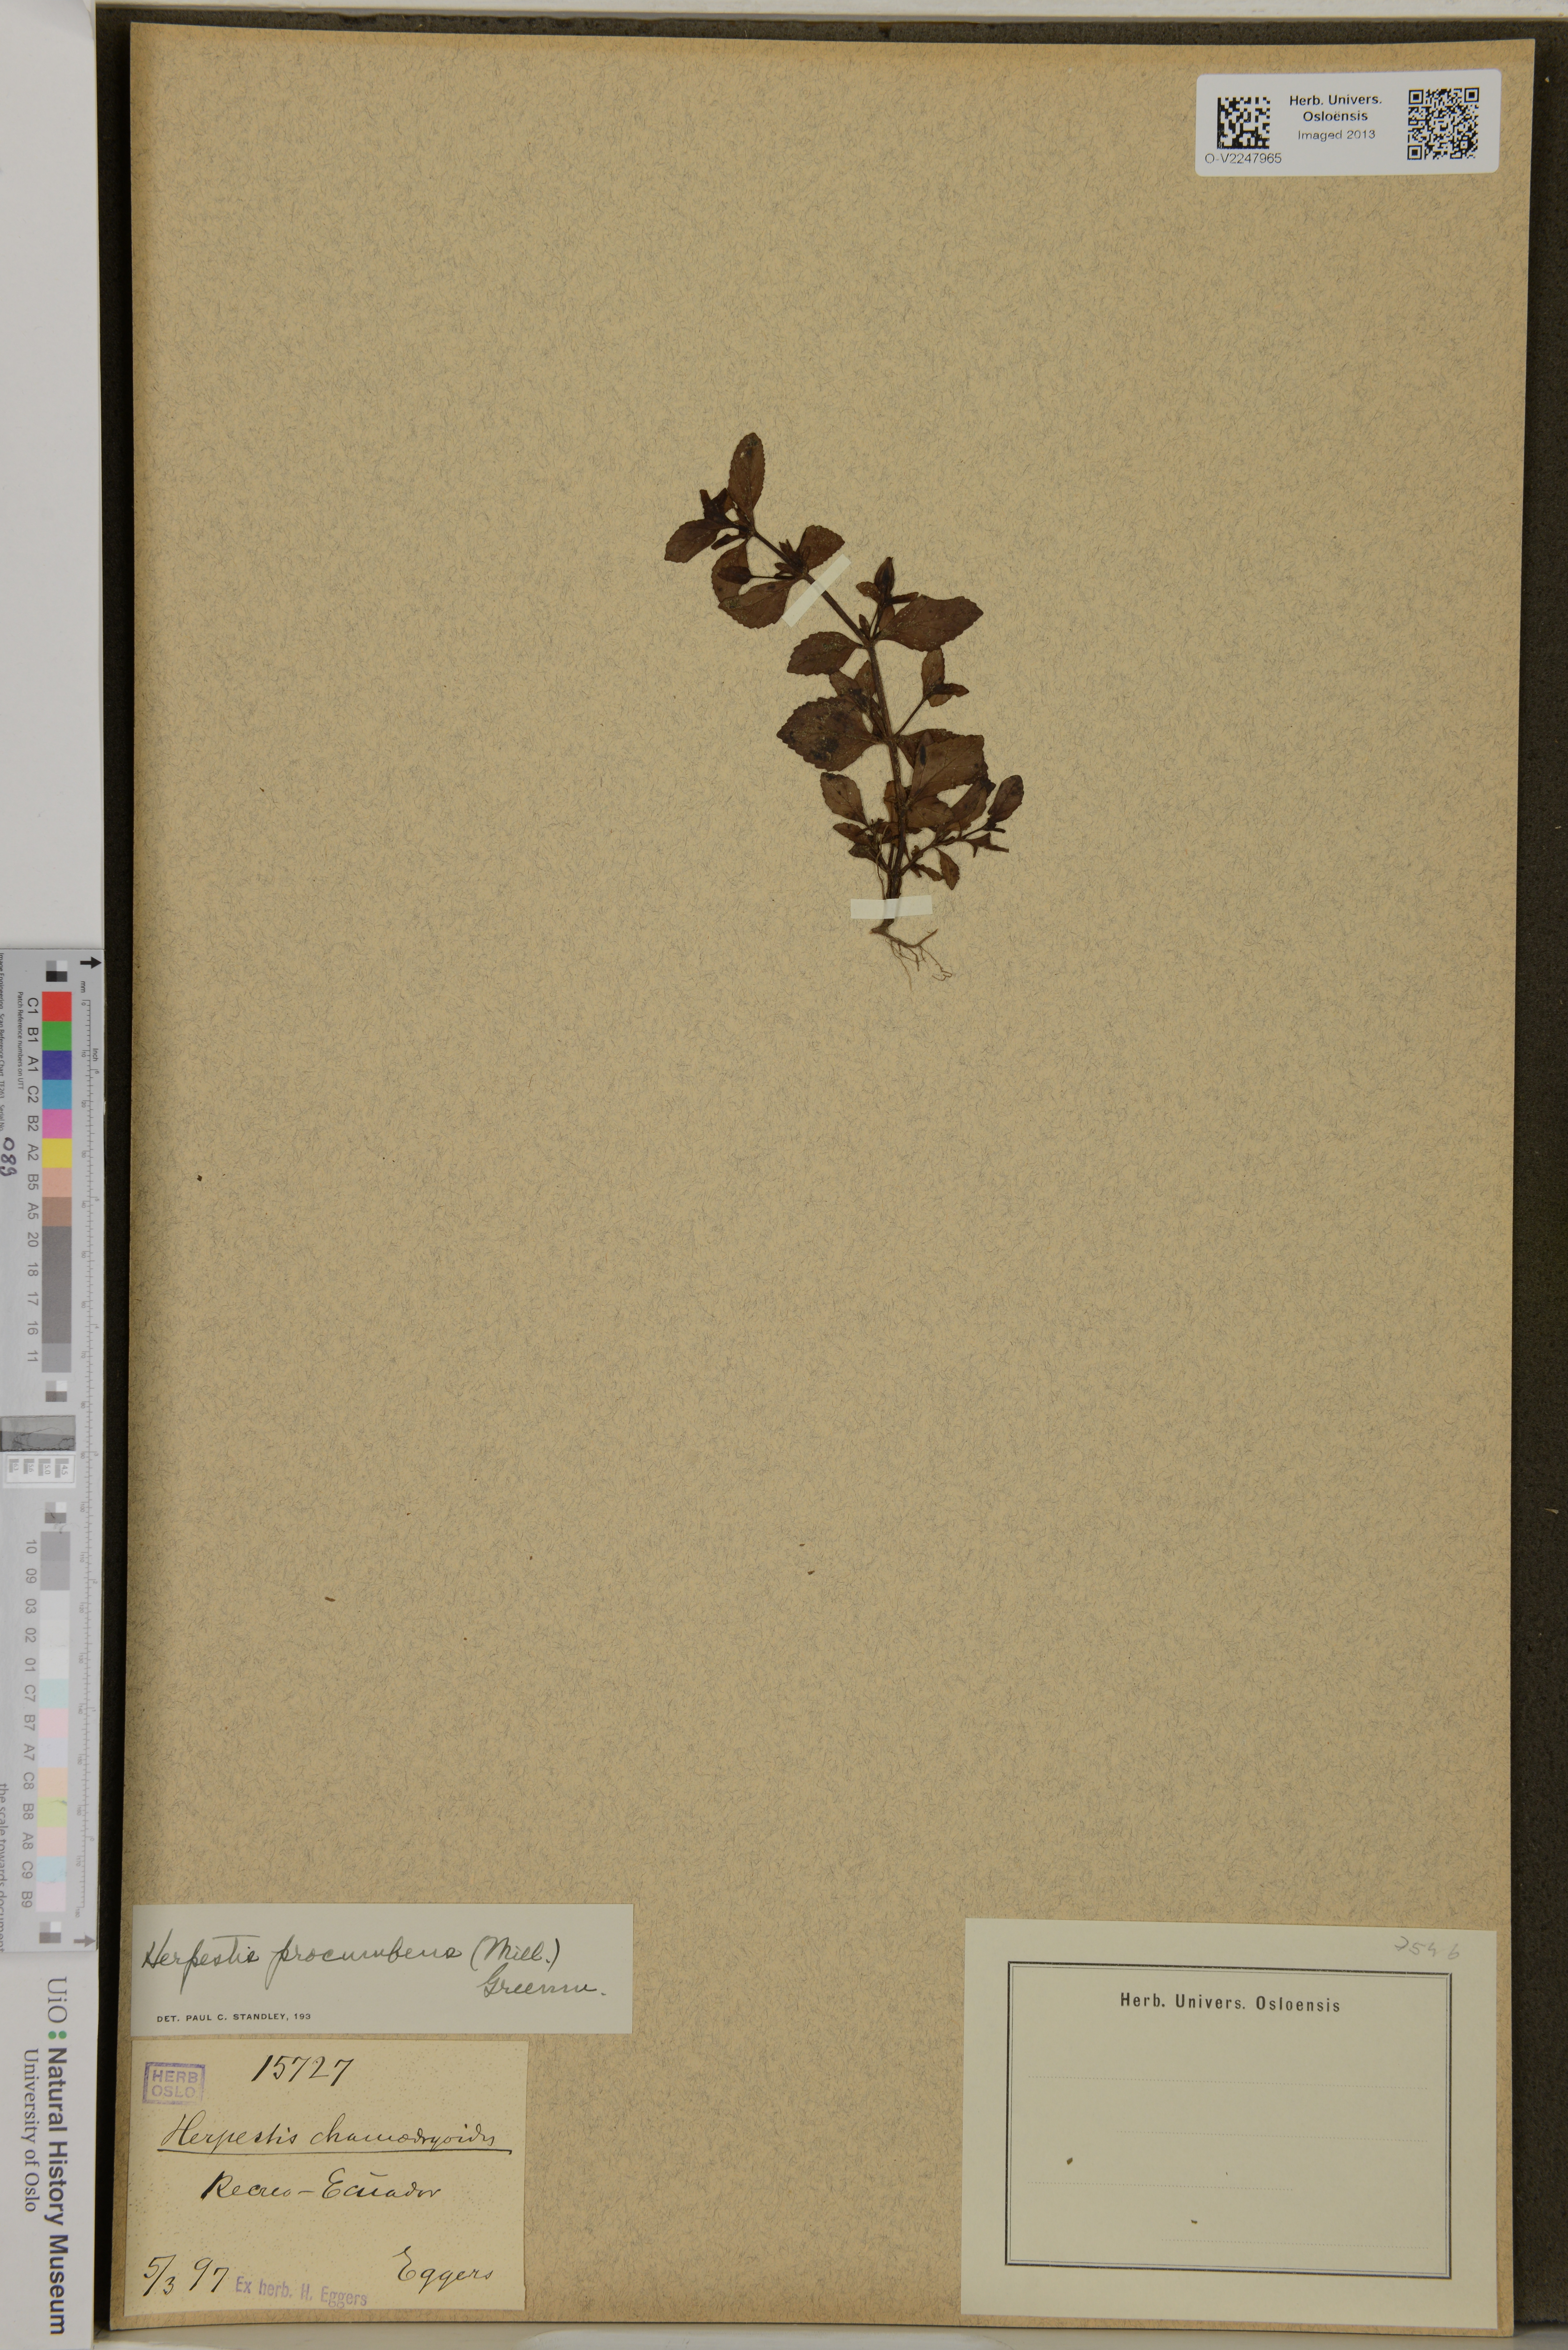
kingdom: Plantae
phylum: Tracheophyta
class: Magnoliopsida
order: Lamiales
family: Plantaginaceae
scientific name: Plantaginaceae
